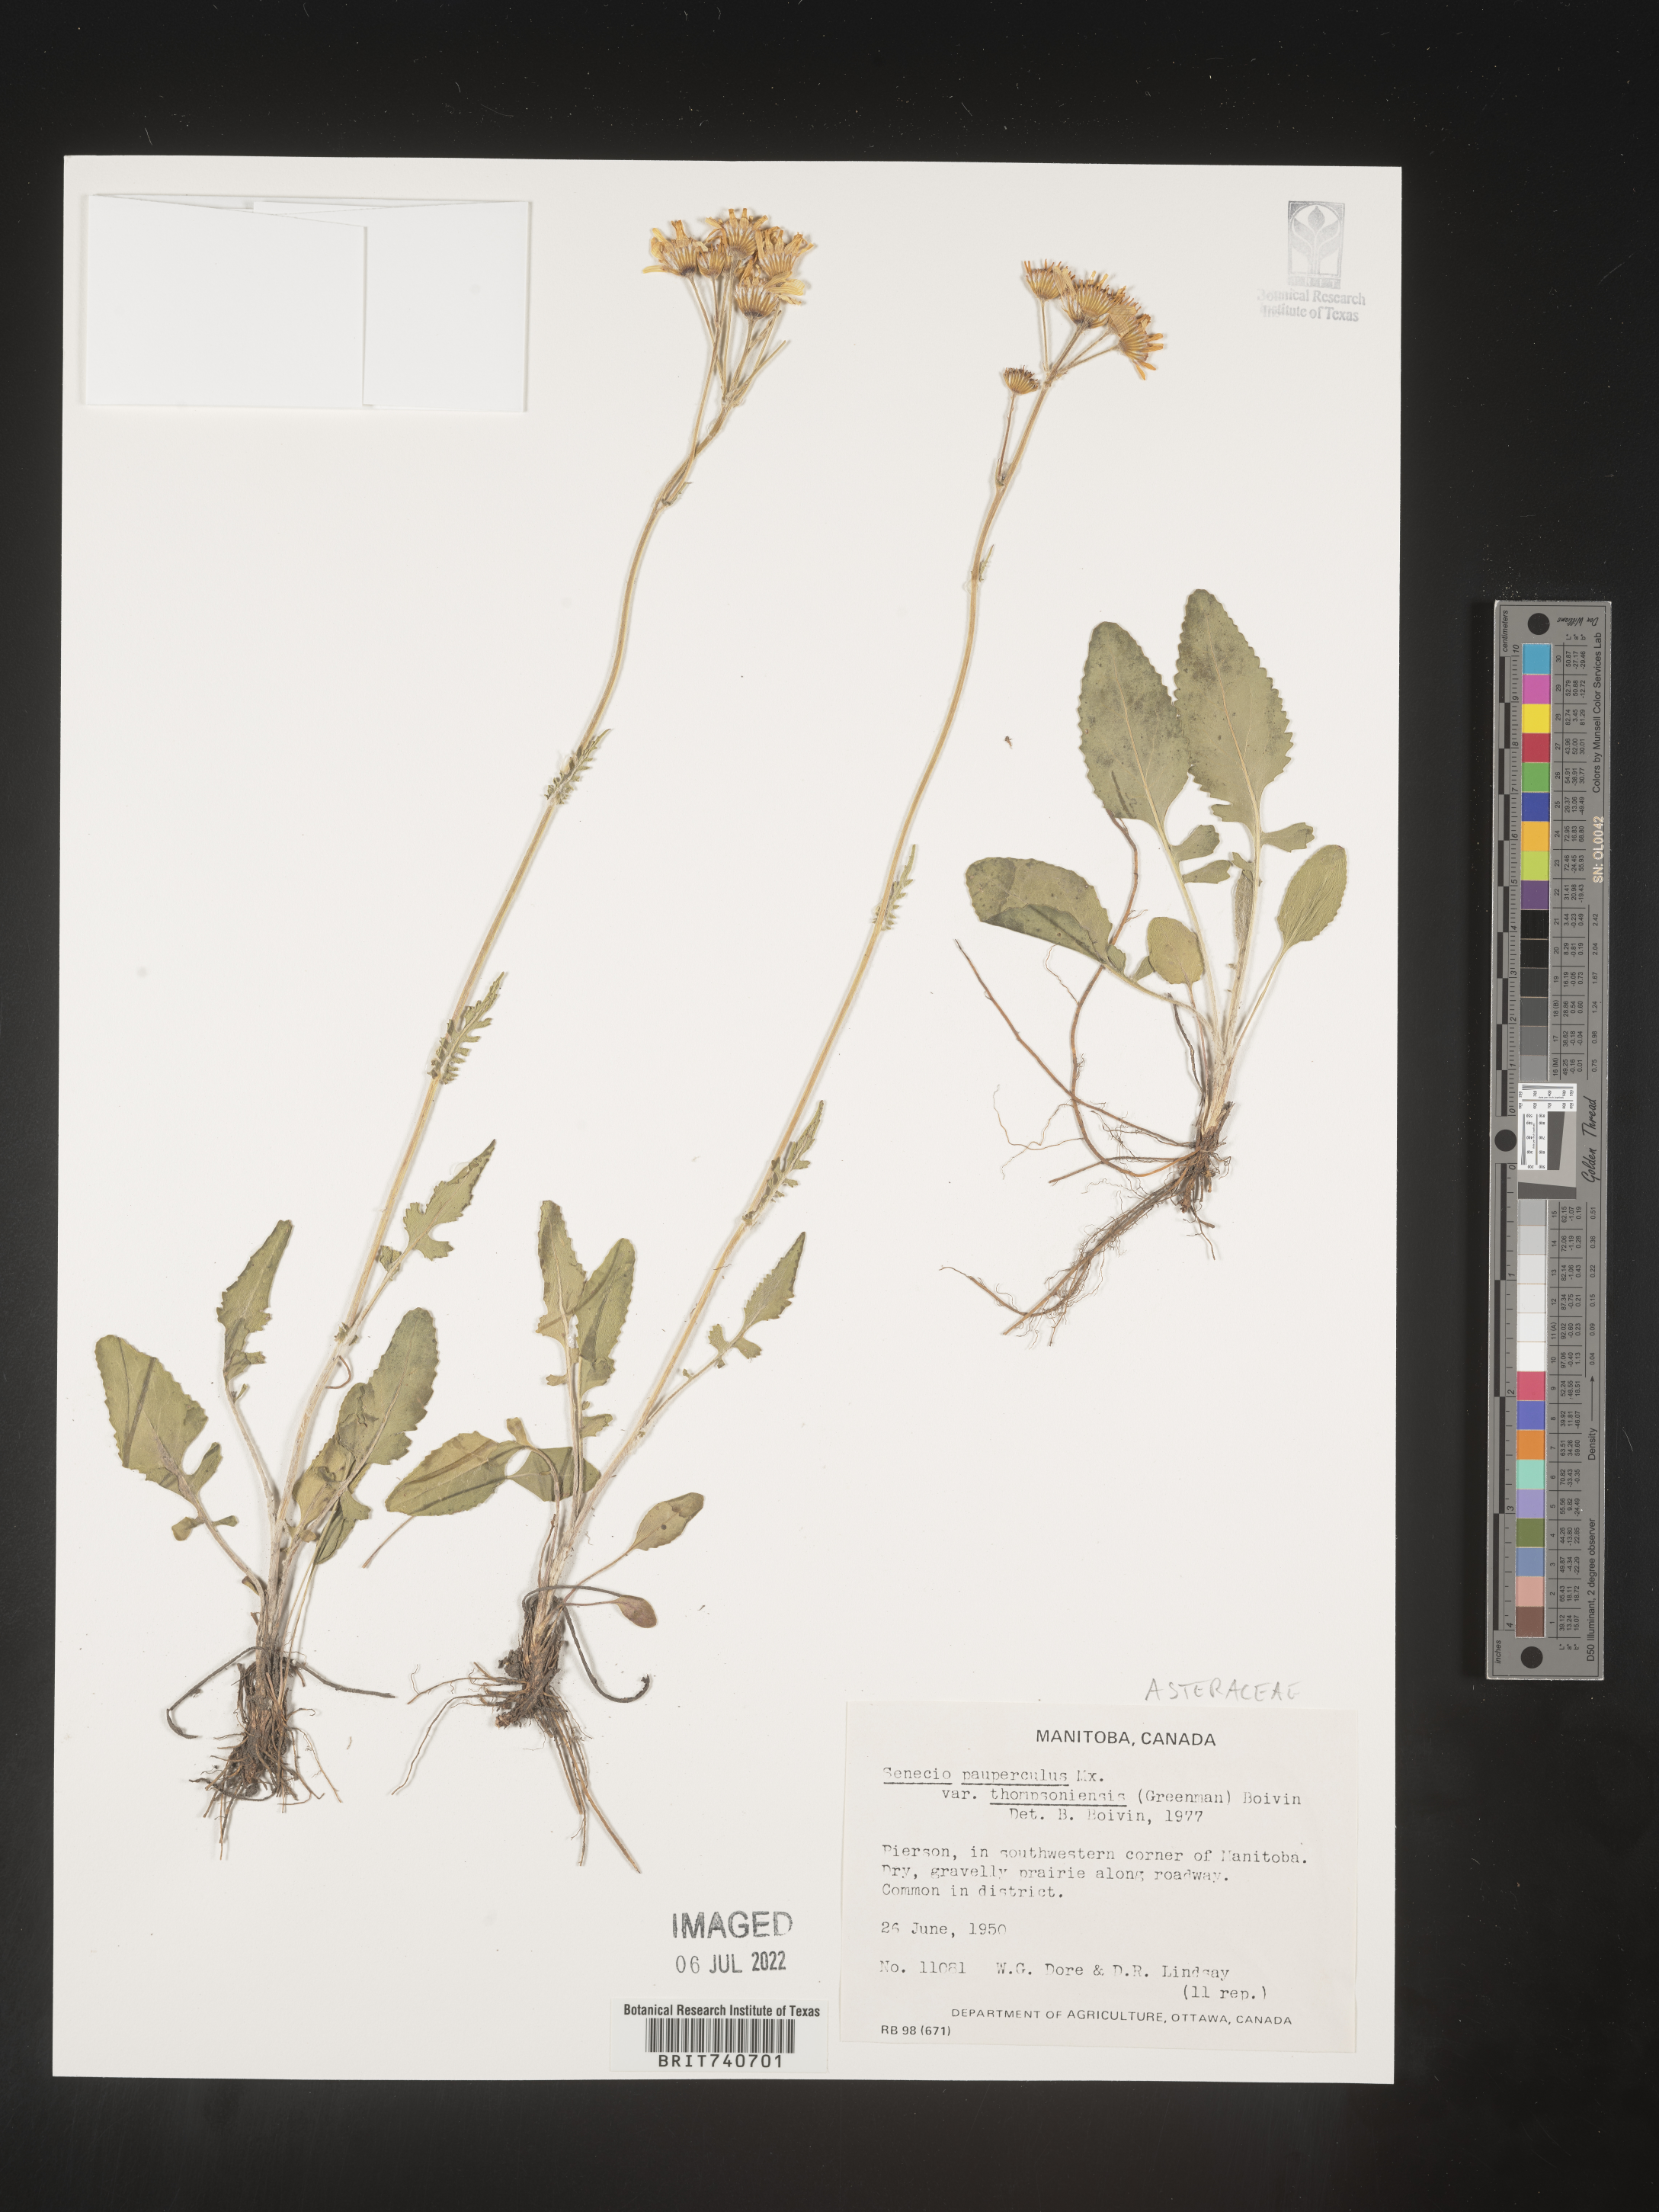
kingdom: Plantae
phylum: Tracheophyta
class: Magnoliopsida
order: Asterales
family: Asteraceae
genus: Packera
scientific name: Packera paupercula
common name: Balsam groundsel
